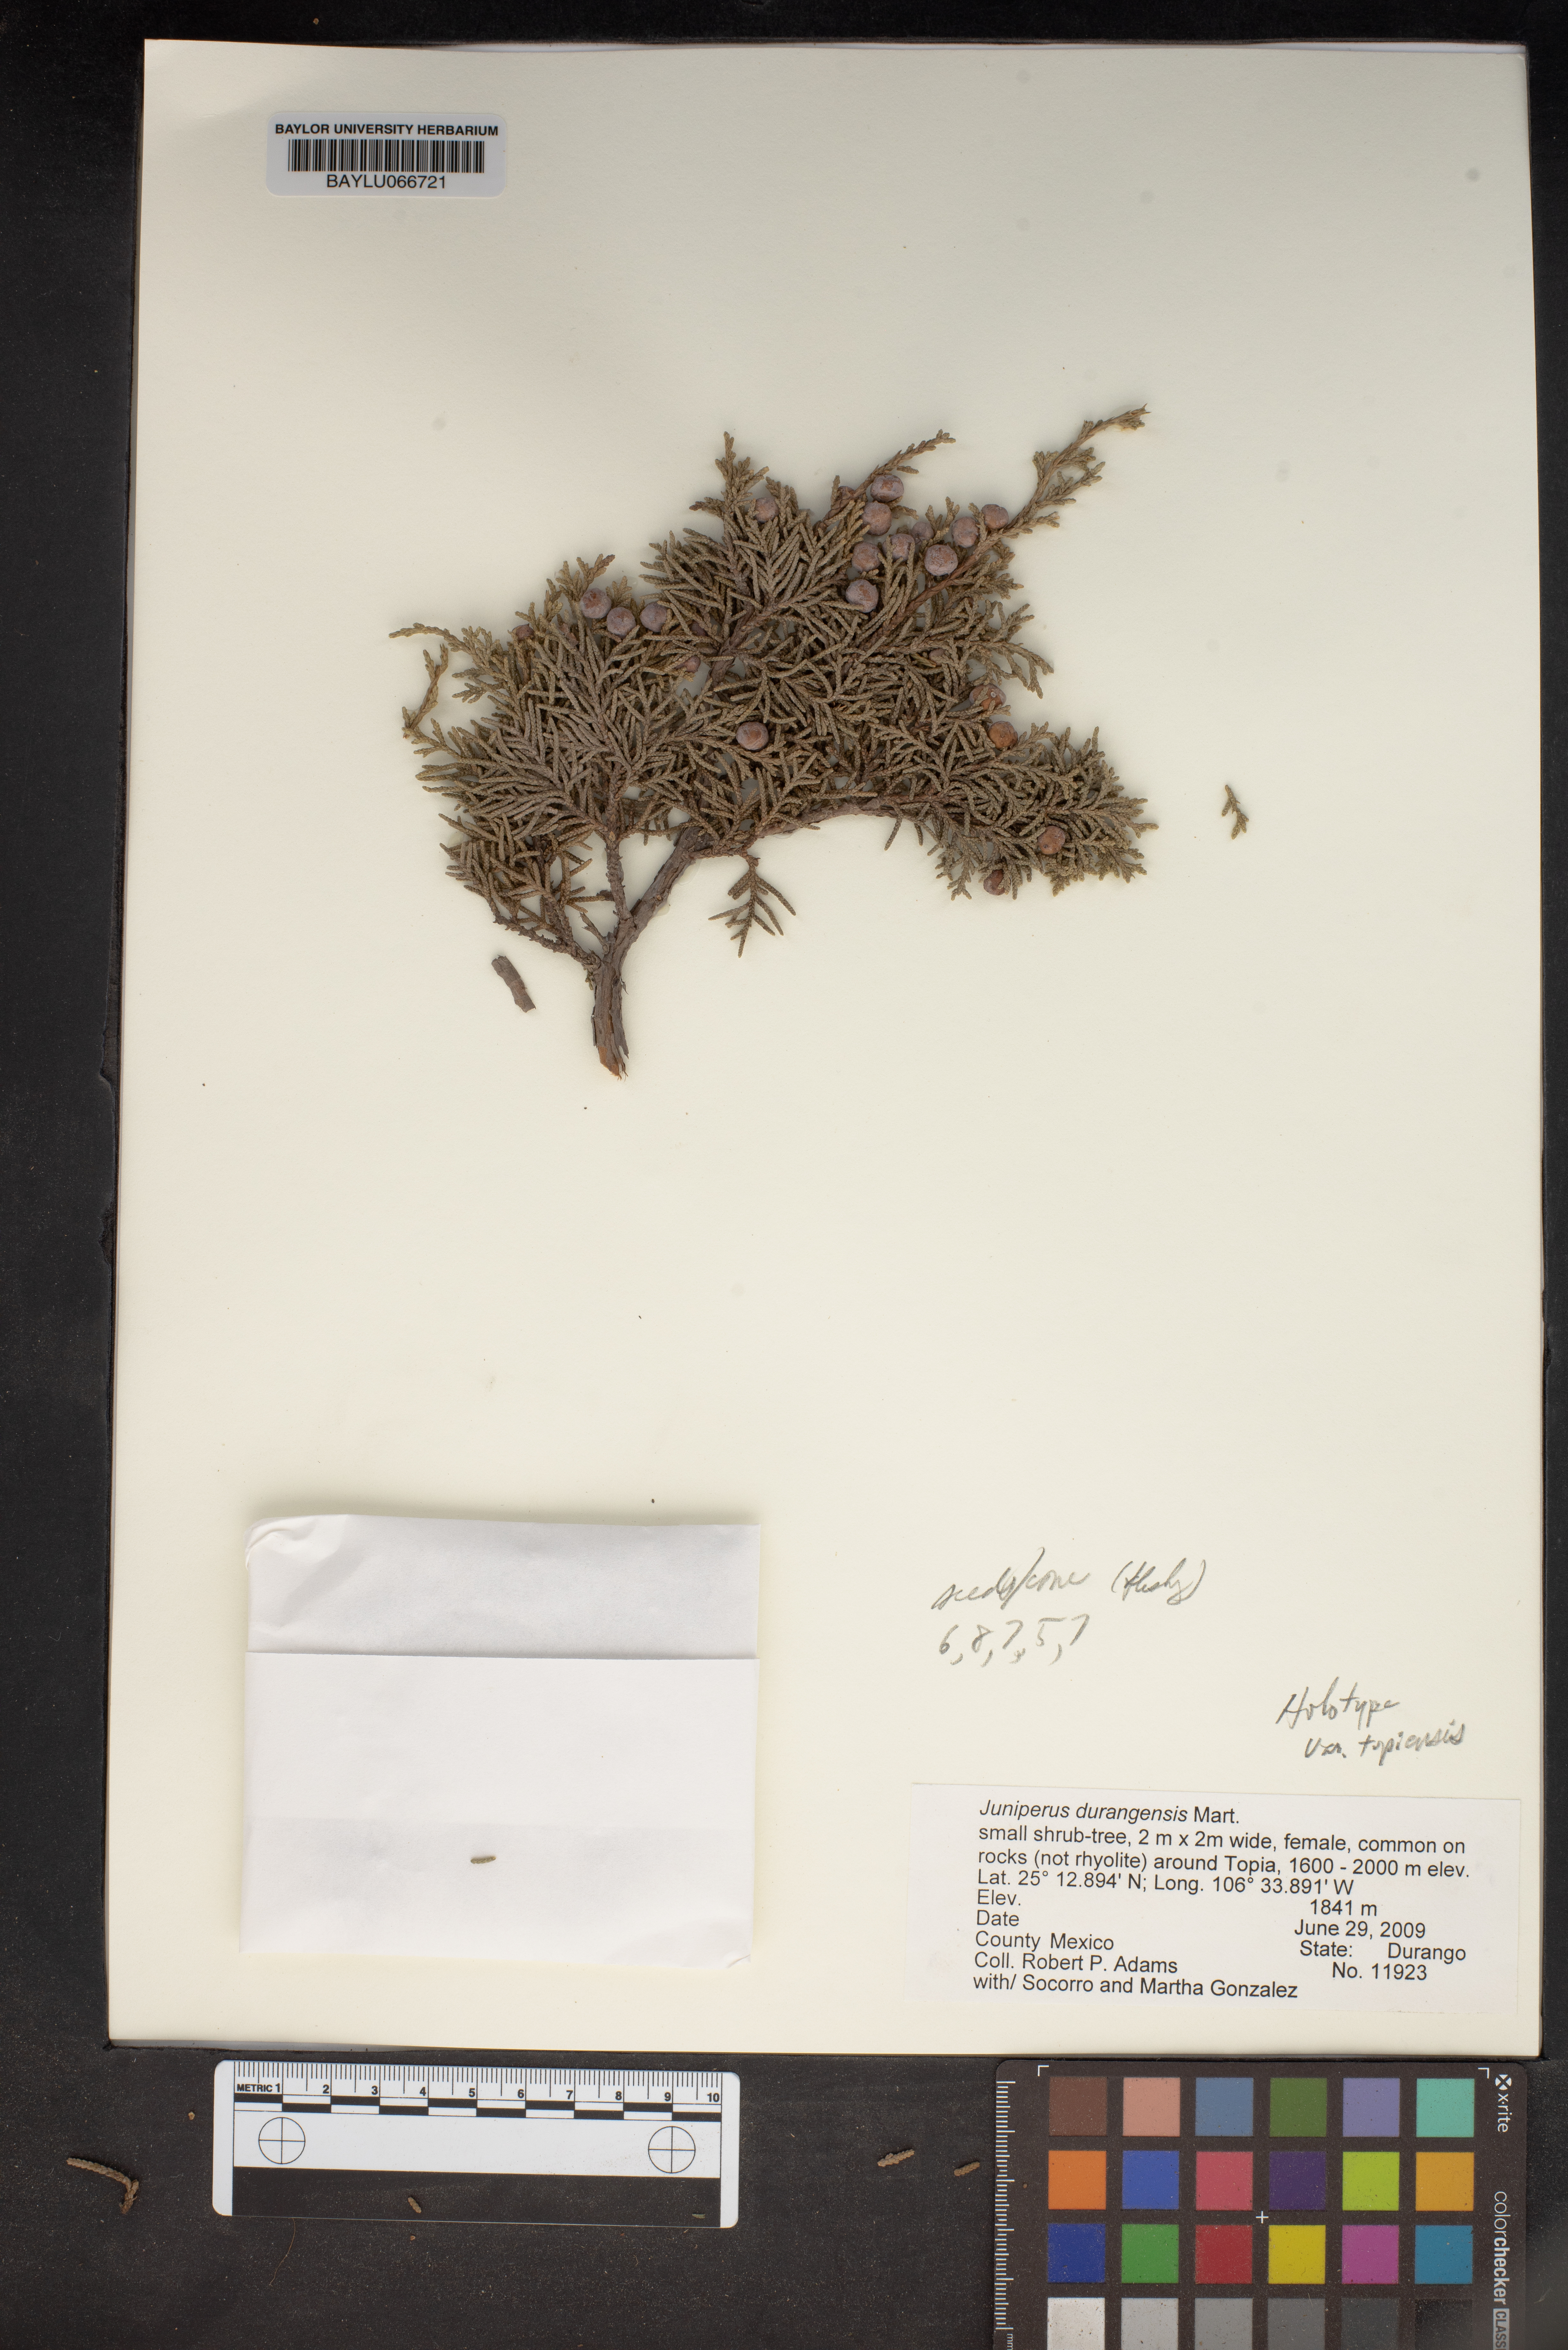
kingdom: Plantae
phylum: Tracheophyta
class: Pinopsida
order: Pinales
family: Cupressaceae
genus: Juniperus
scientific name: Juniperus durangensis
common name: Durango juniper
